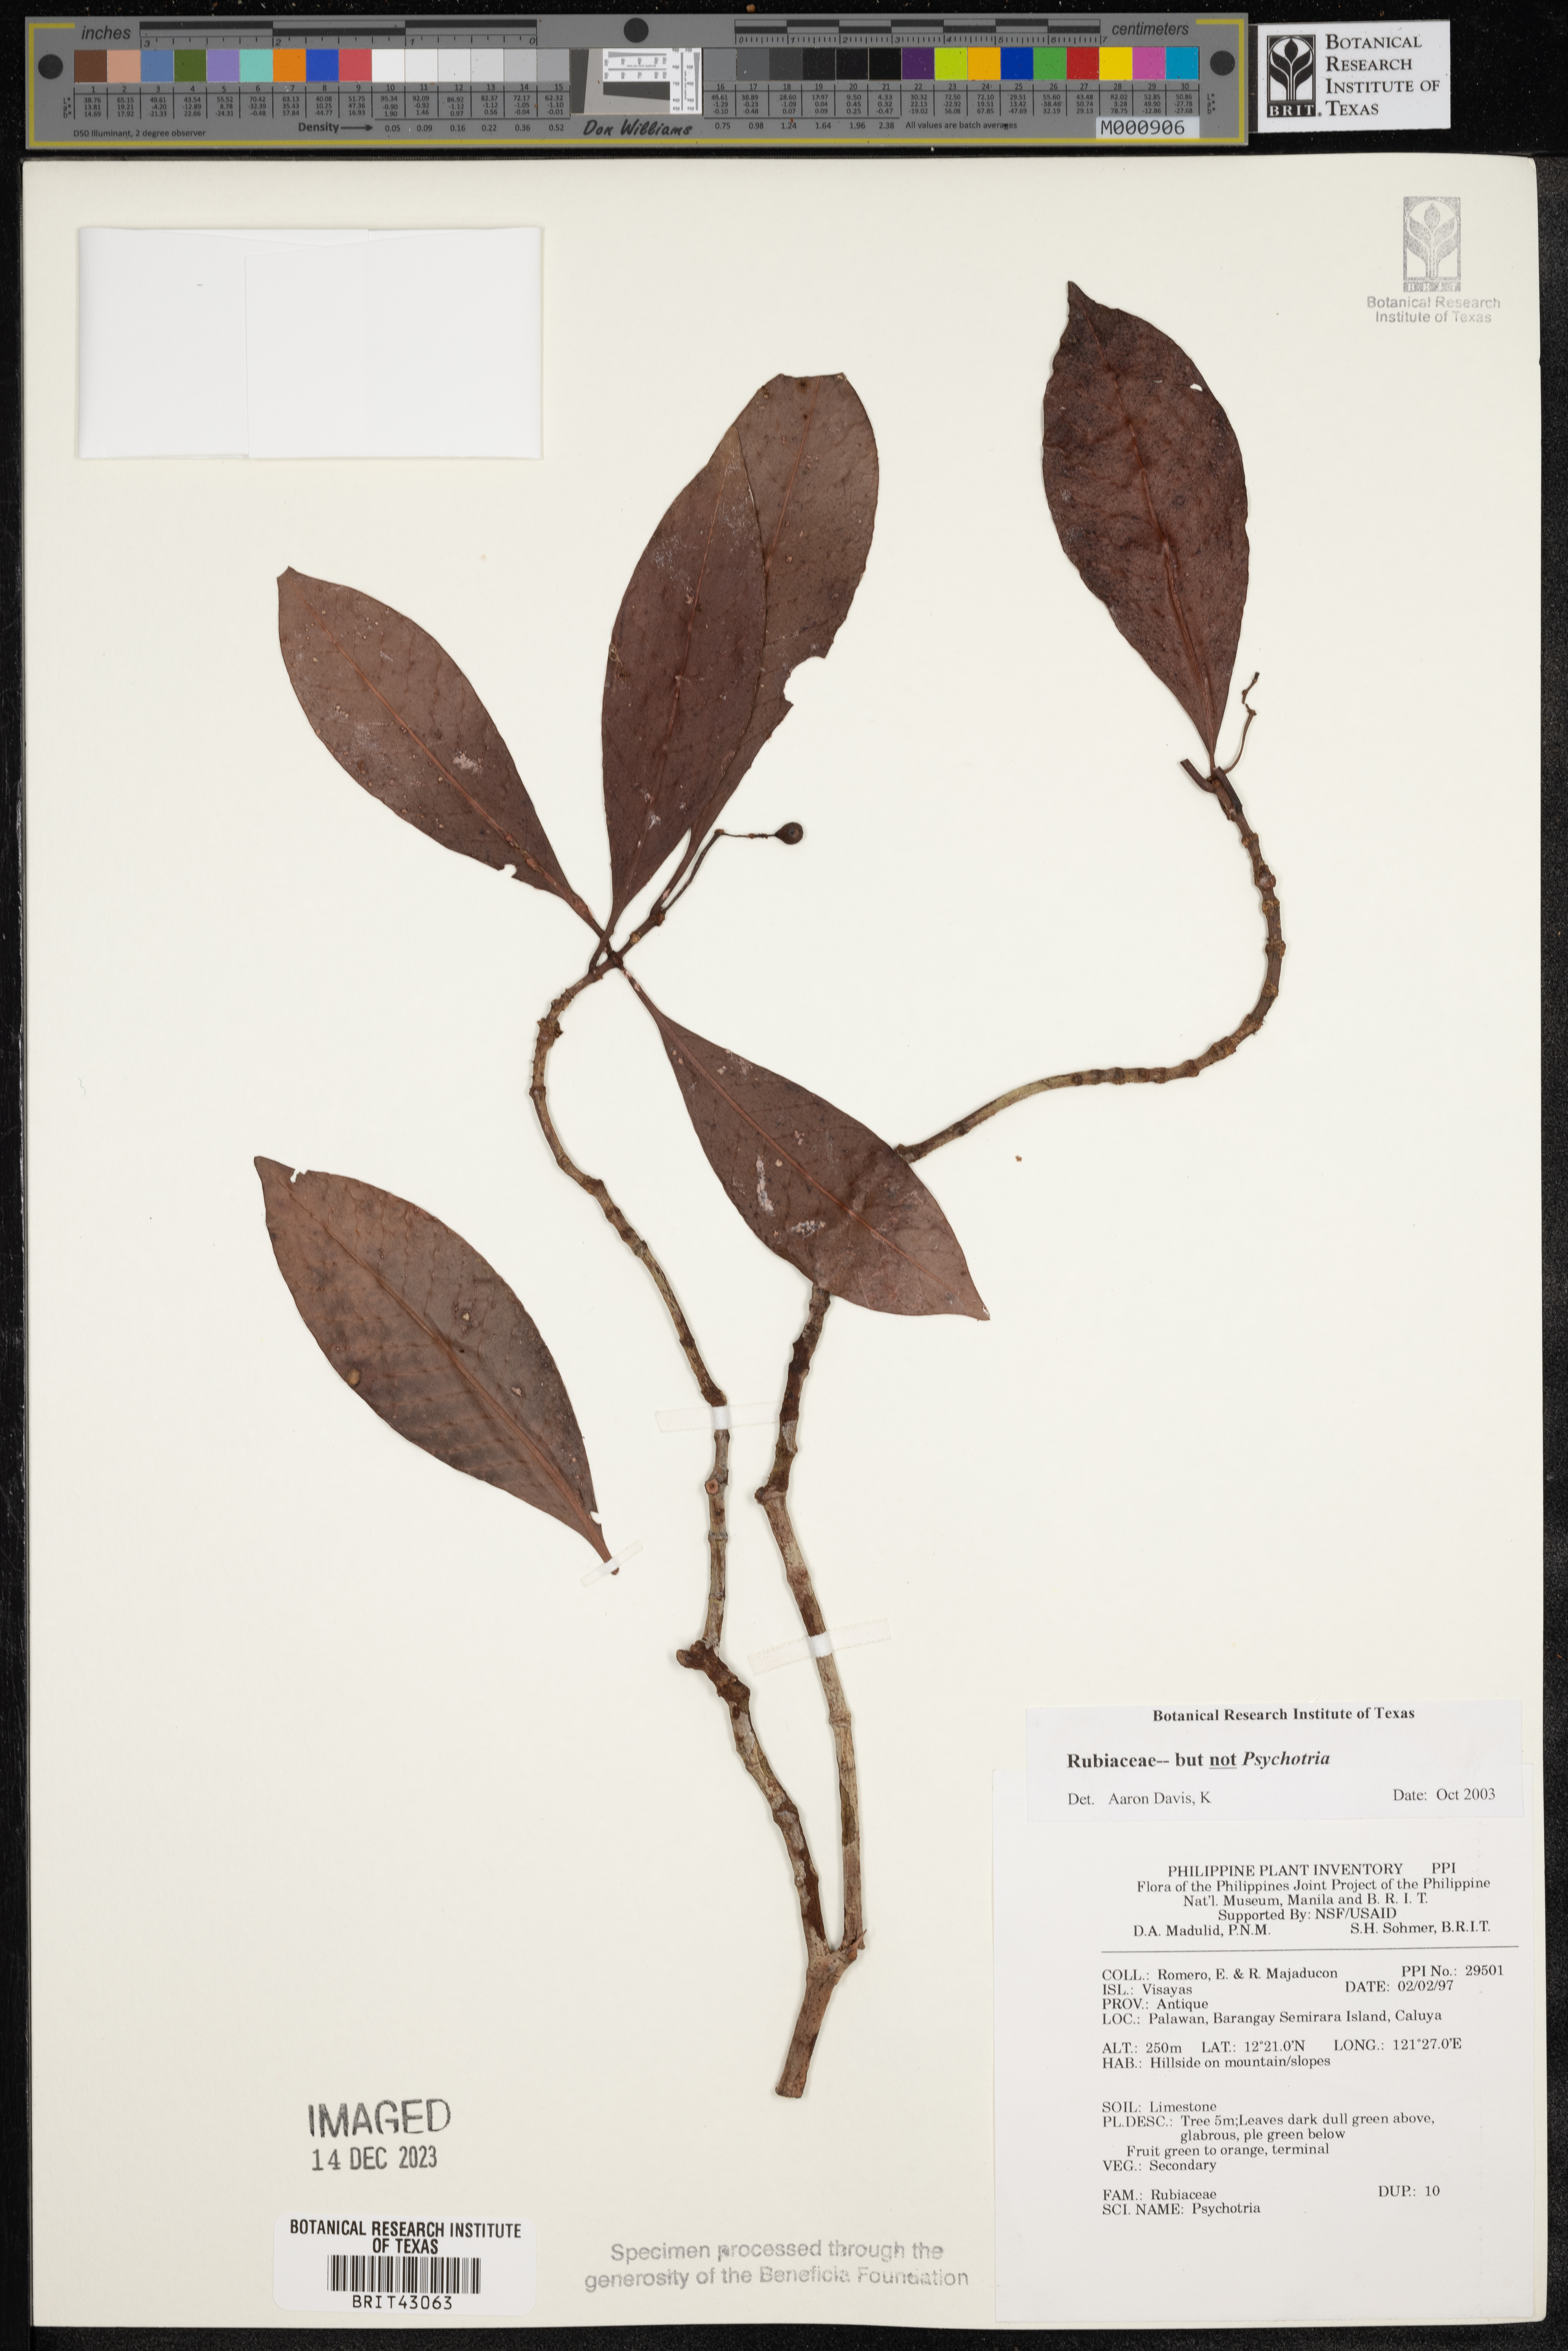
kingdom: Plantae
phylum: Tracheophyta
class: Magnoliopsida
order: Gentianales
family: Rubiaceae
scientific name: Rubiaceae
